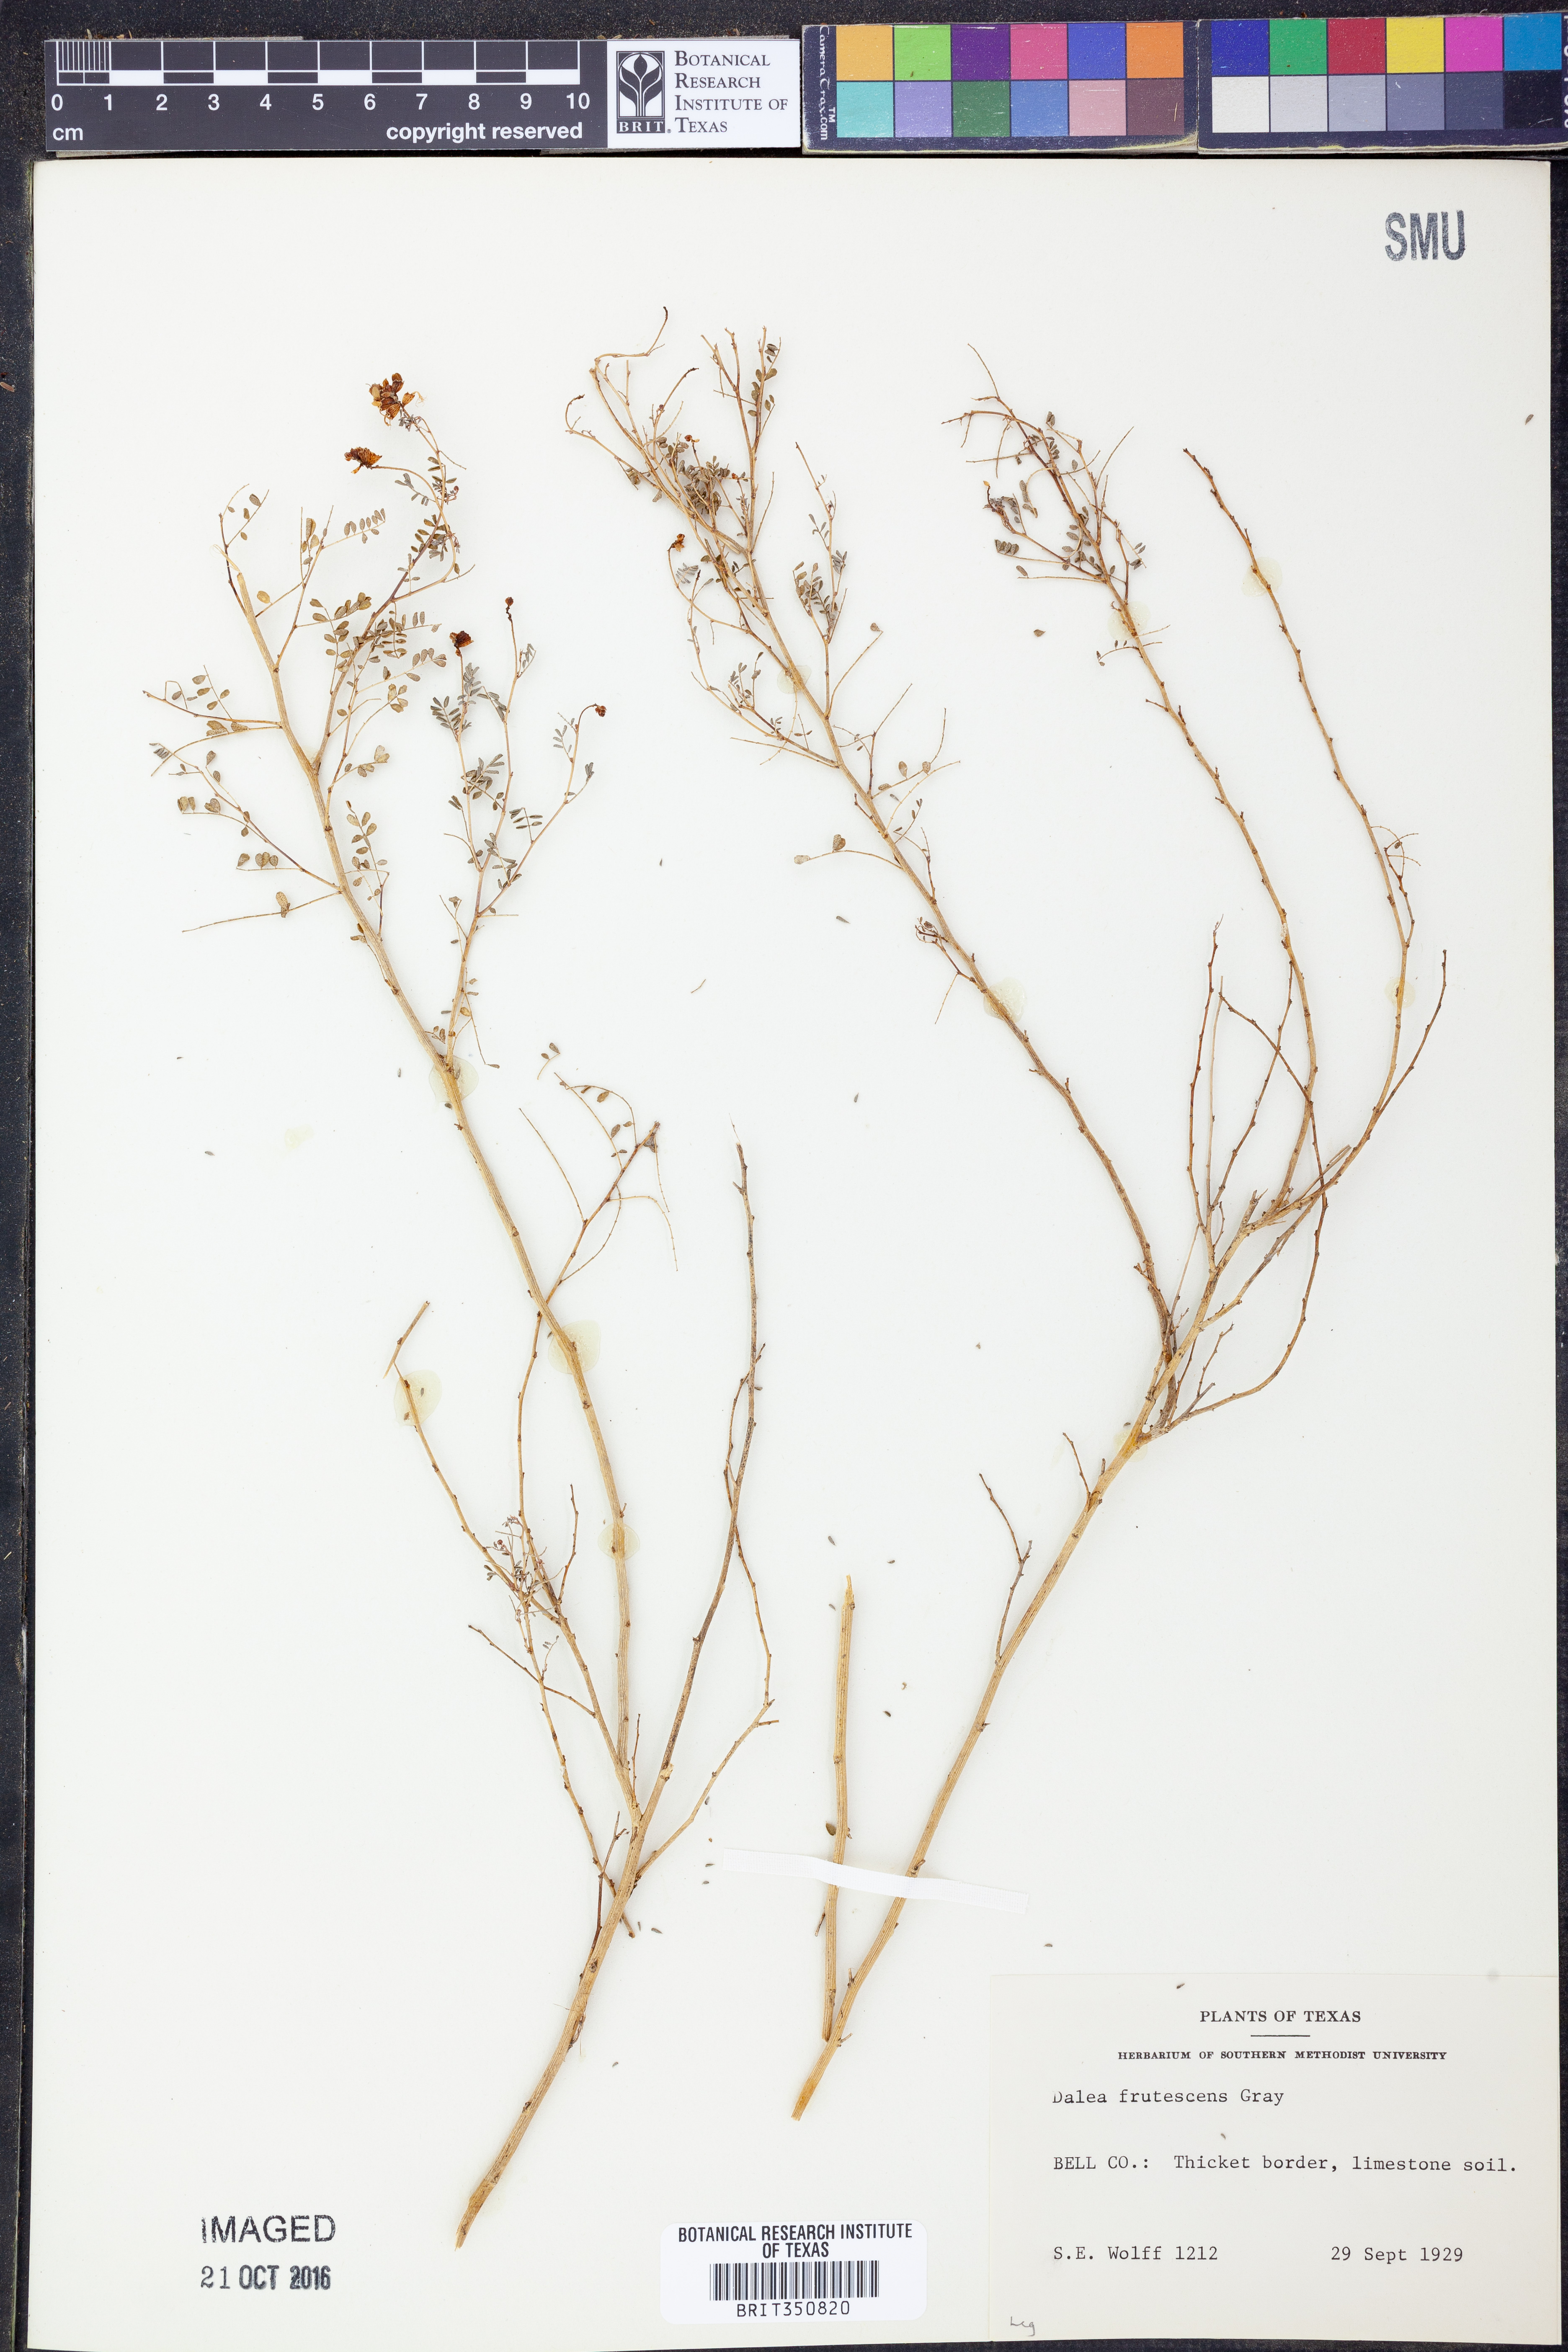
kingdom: Plantae
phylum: Tracheophyta
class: Magnoliopsida
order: Fabales
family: Fabaceae
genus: Dalea
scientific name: Dalea frutescens
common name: Black dalea
